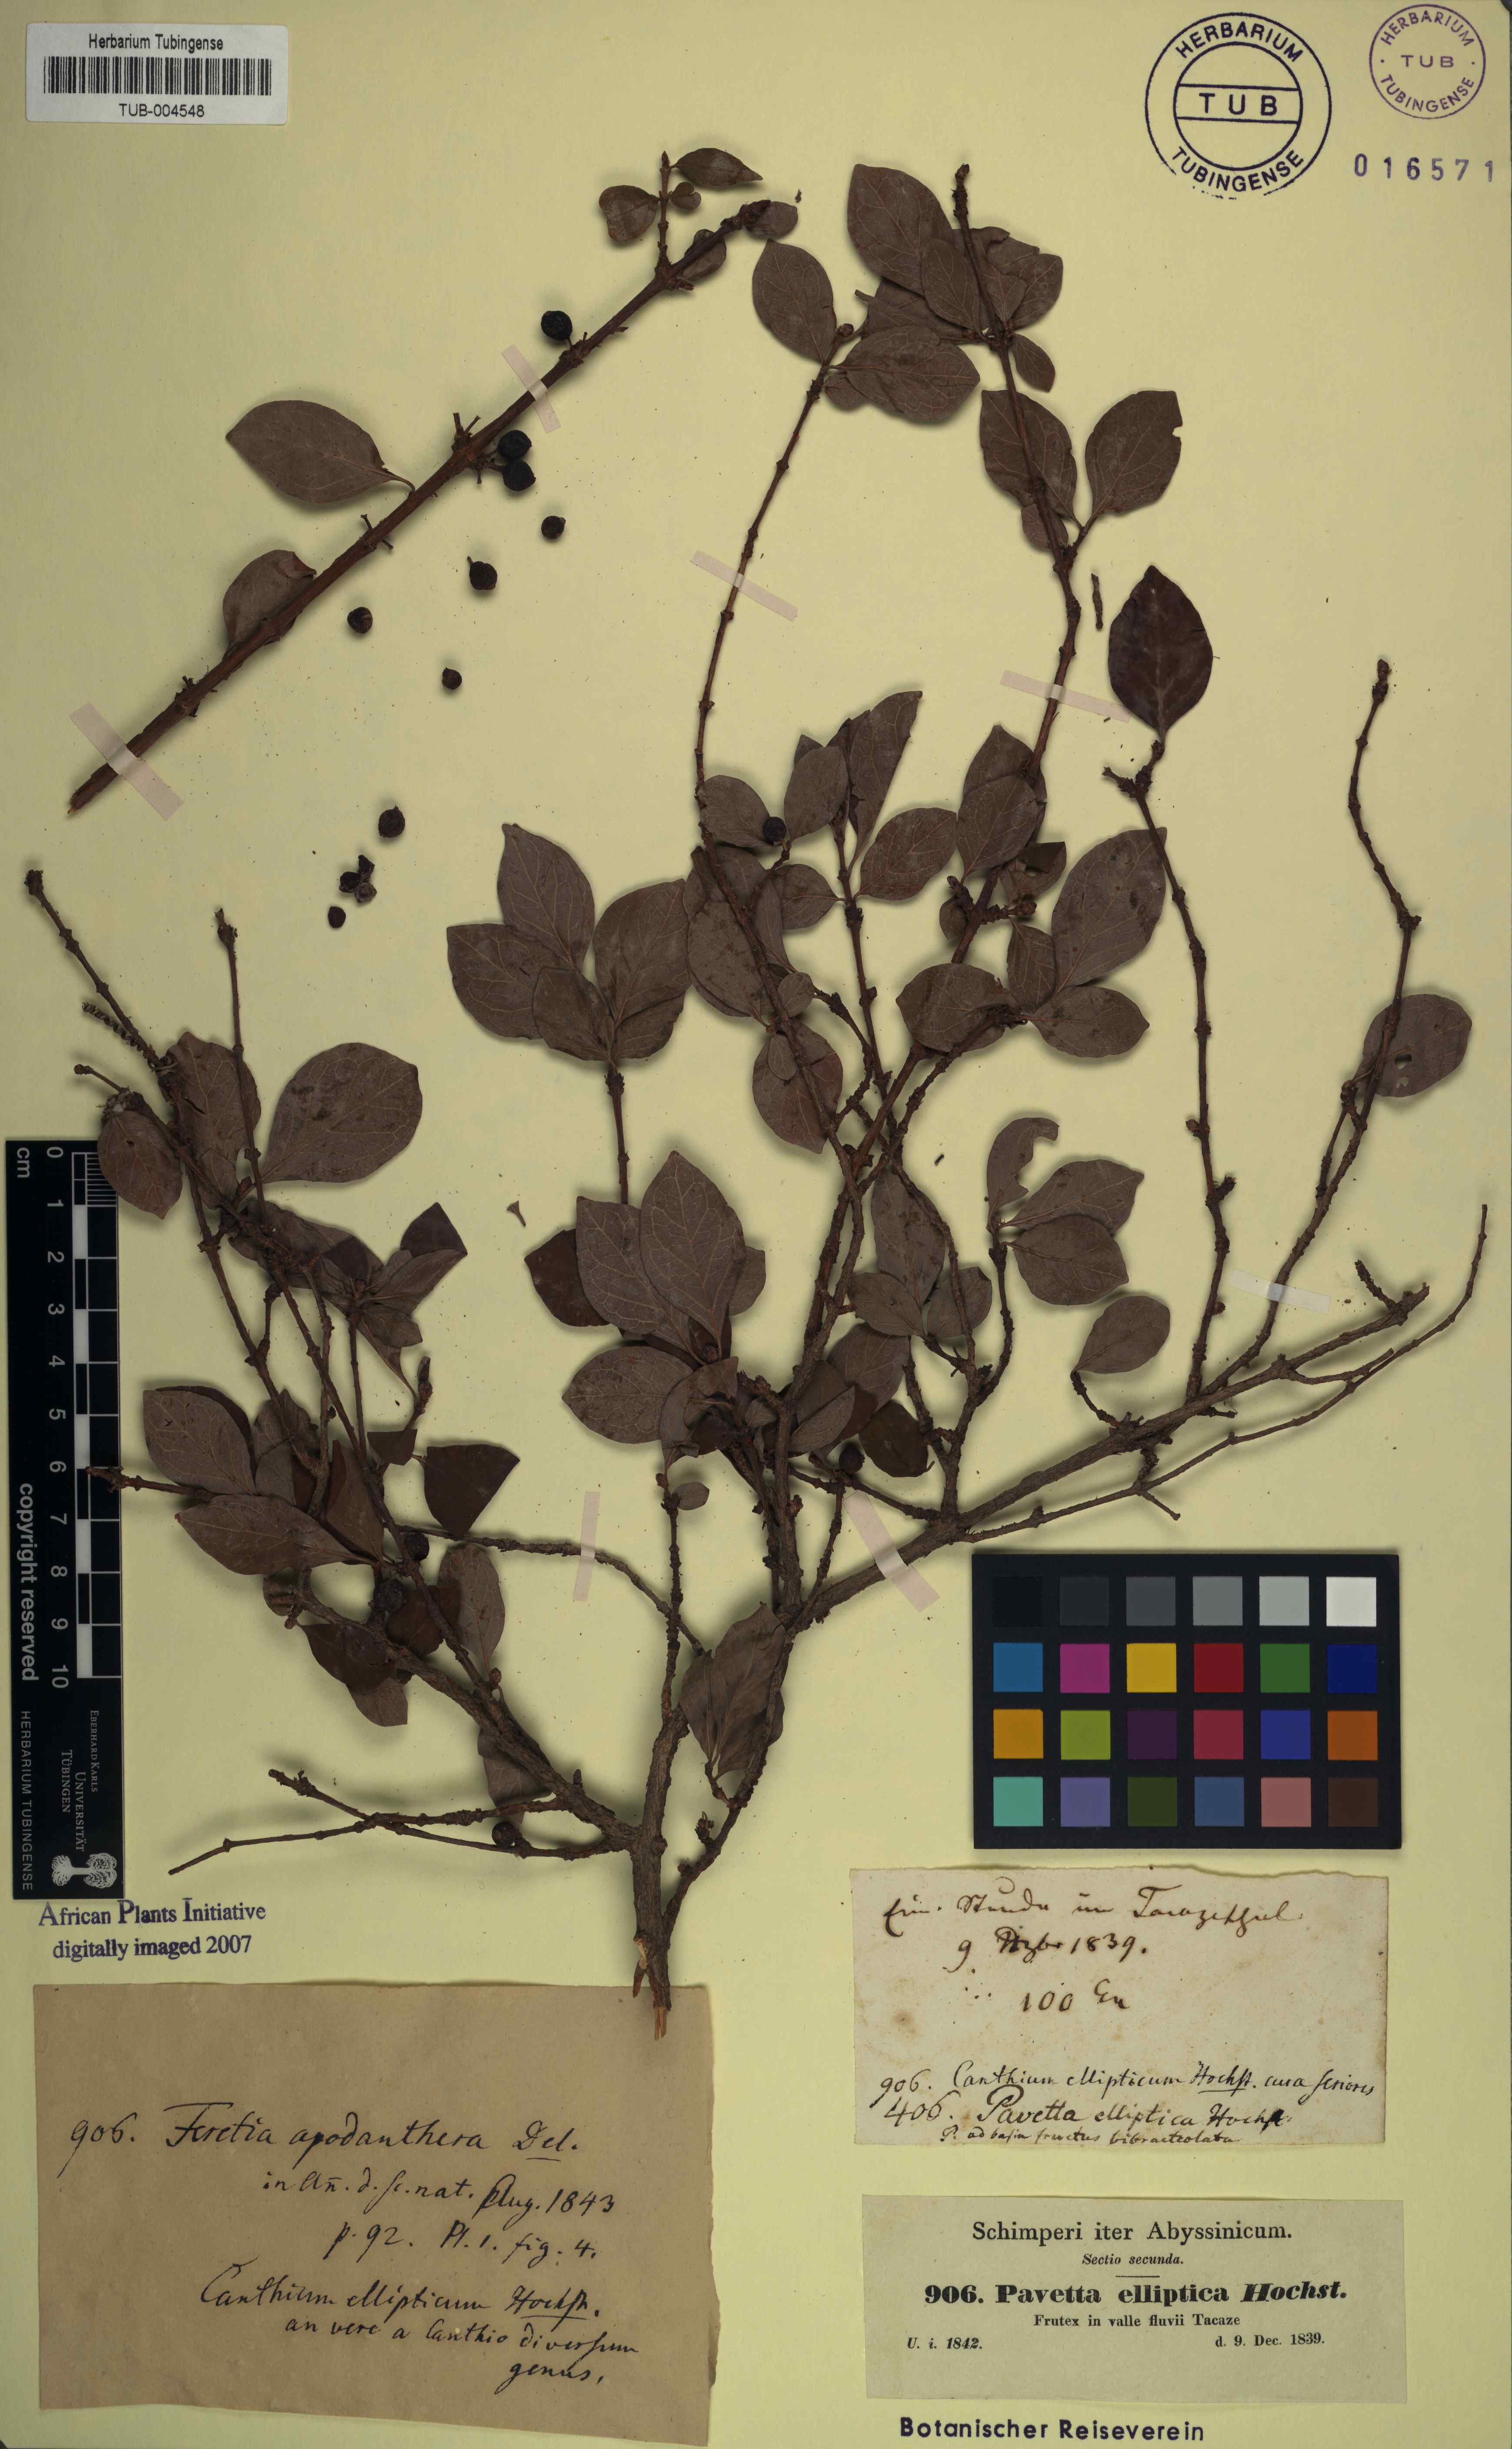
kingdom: Plantae
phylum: Tracheophyta
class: Magnoliopsida
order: Gentianales
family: Rubiaceae
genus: Feretia
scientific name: Feretia apodanthera
